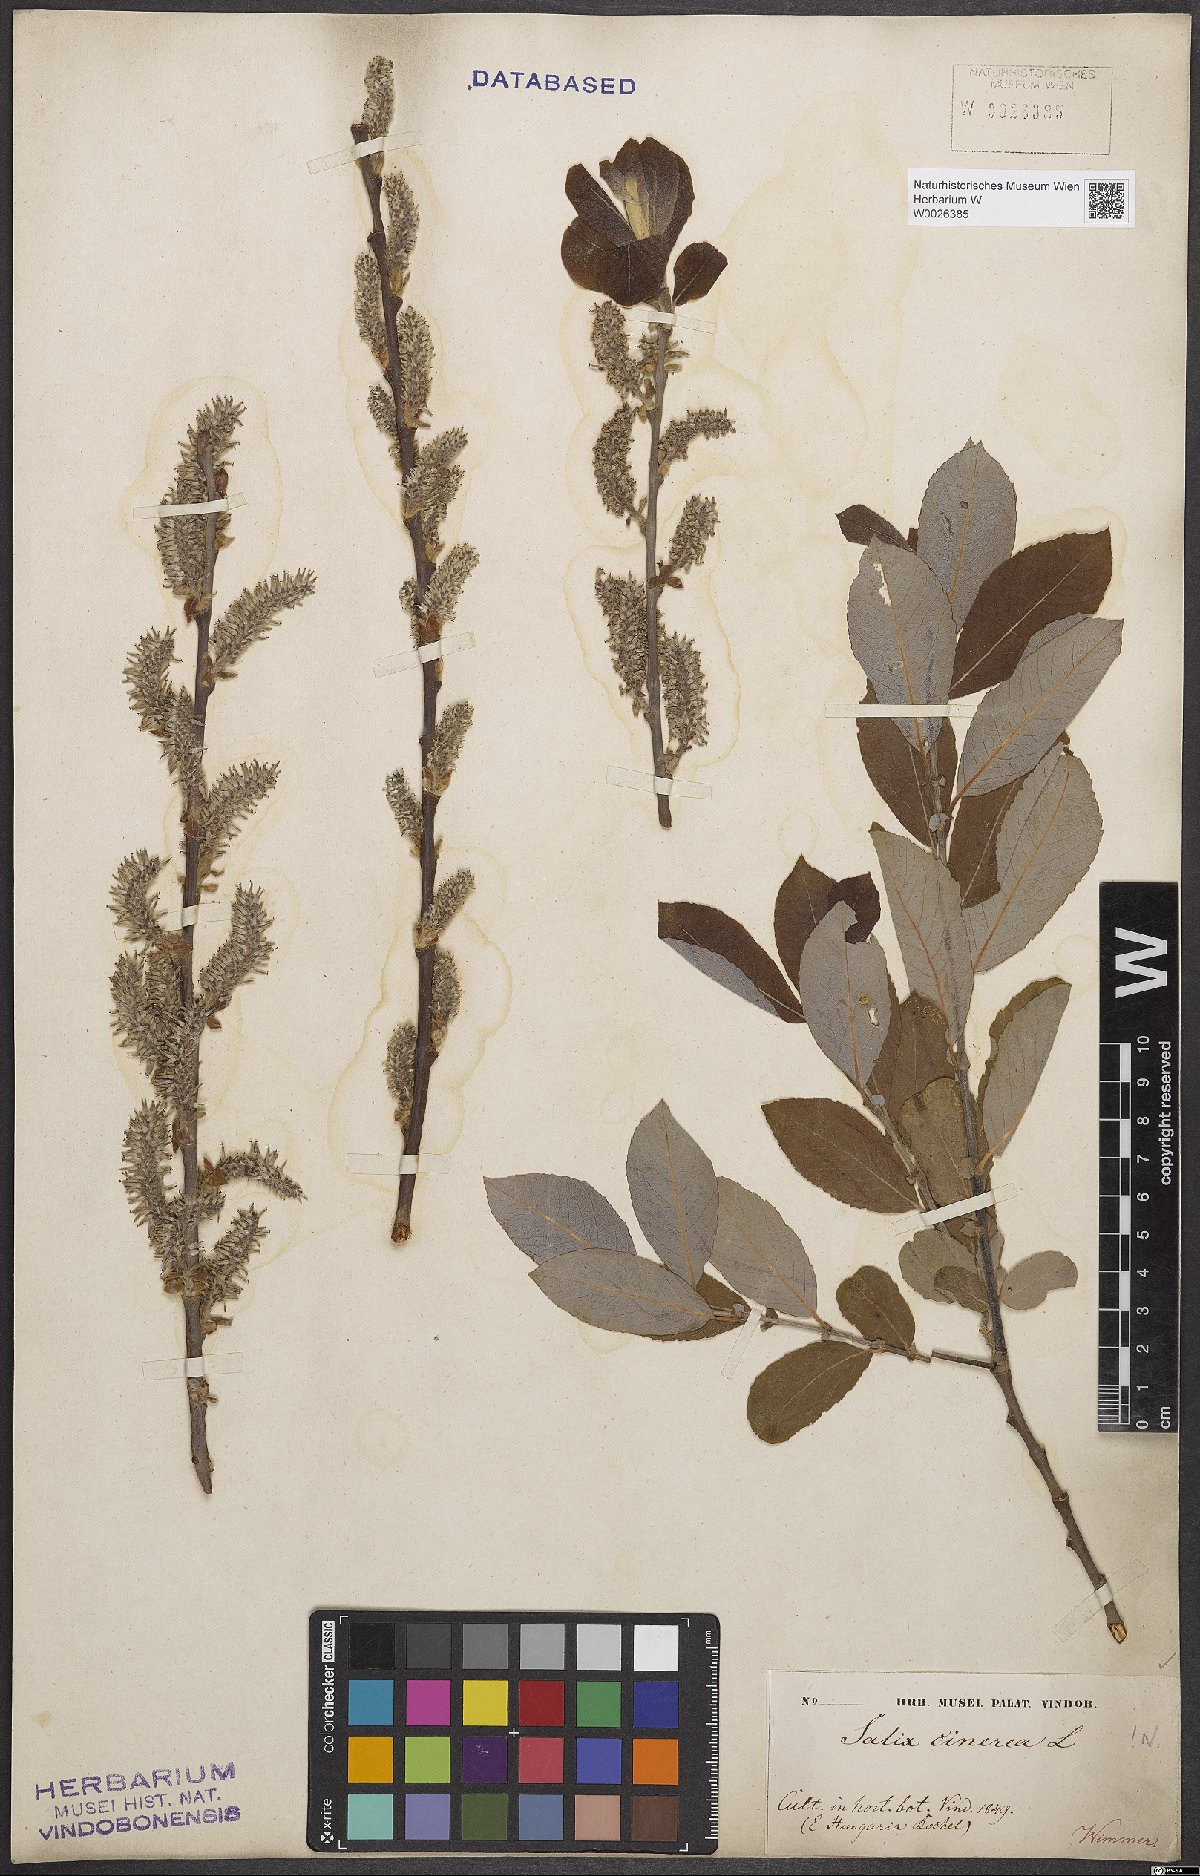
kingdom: Plantae
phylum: Tracheophyta
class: Magnoliopsida
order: Malpighiales
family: Salicaceae
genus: Salix
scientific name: Salix cinerea
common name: Common sallow
